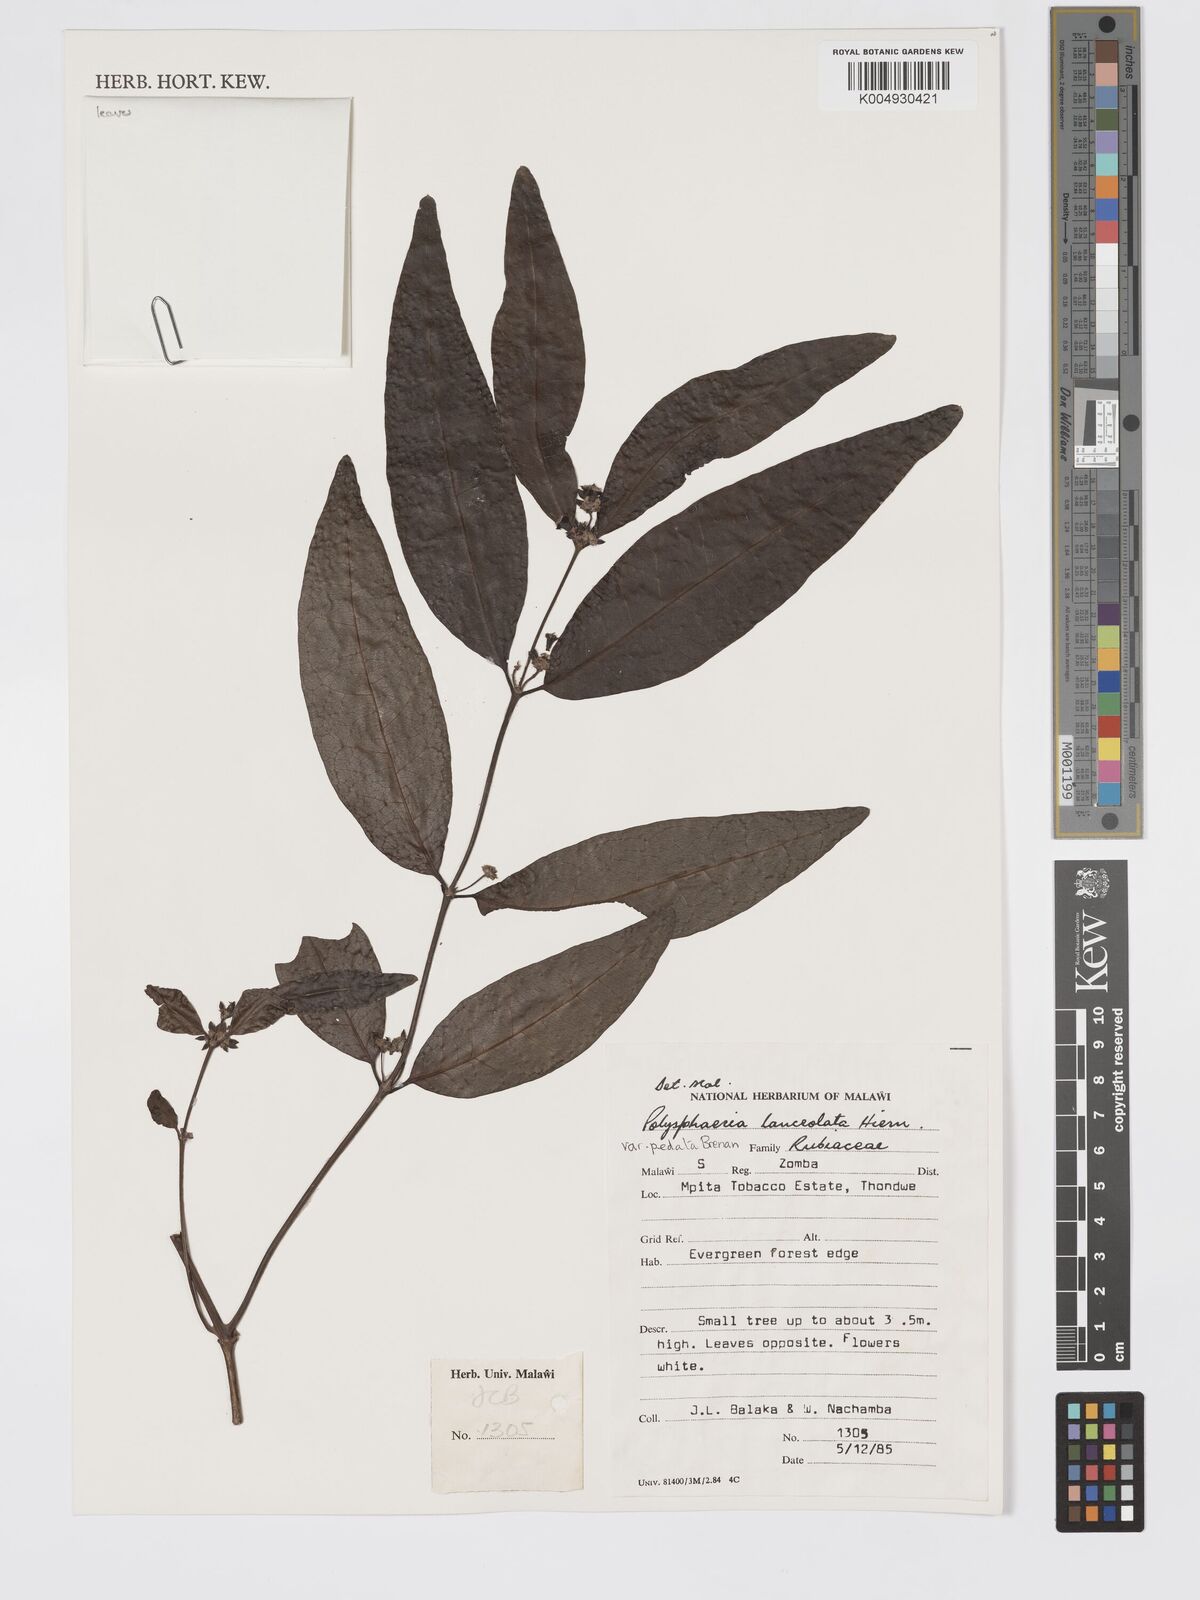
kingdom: Plantae
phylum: Tracheophyta
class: Magnoliopsida
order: Gentianales
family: Rubiaceae
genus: Polysphaeria
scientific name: Polysphaeria lanceolata
